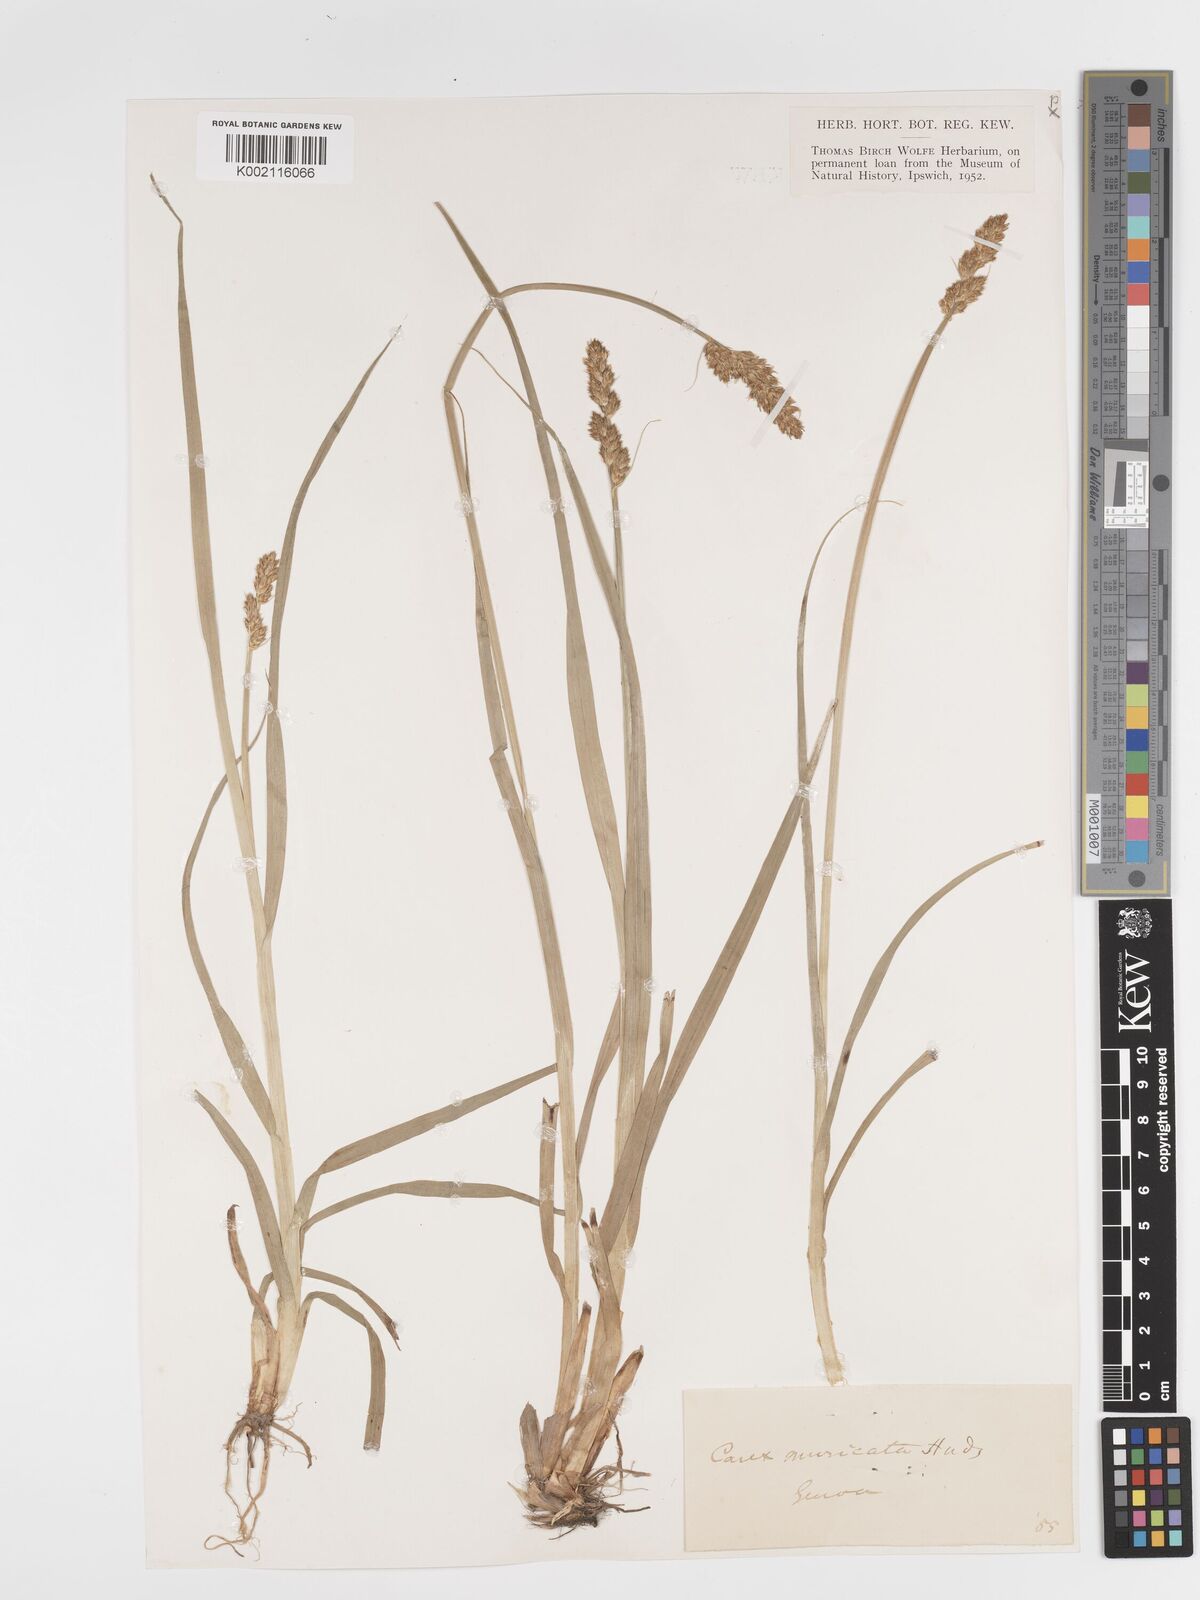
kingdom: Plantae
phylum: Tracheophyta
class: Liliopsida
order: Poales
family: Cyperaceae
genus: Carex
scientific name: Carex spicata
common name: Spiked sedge
